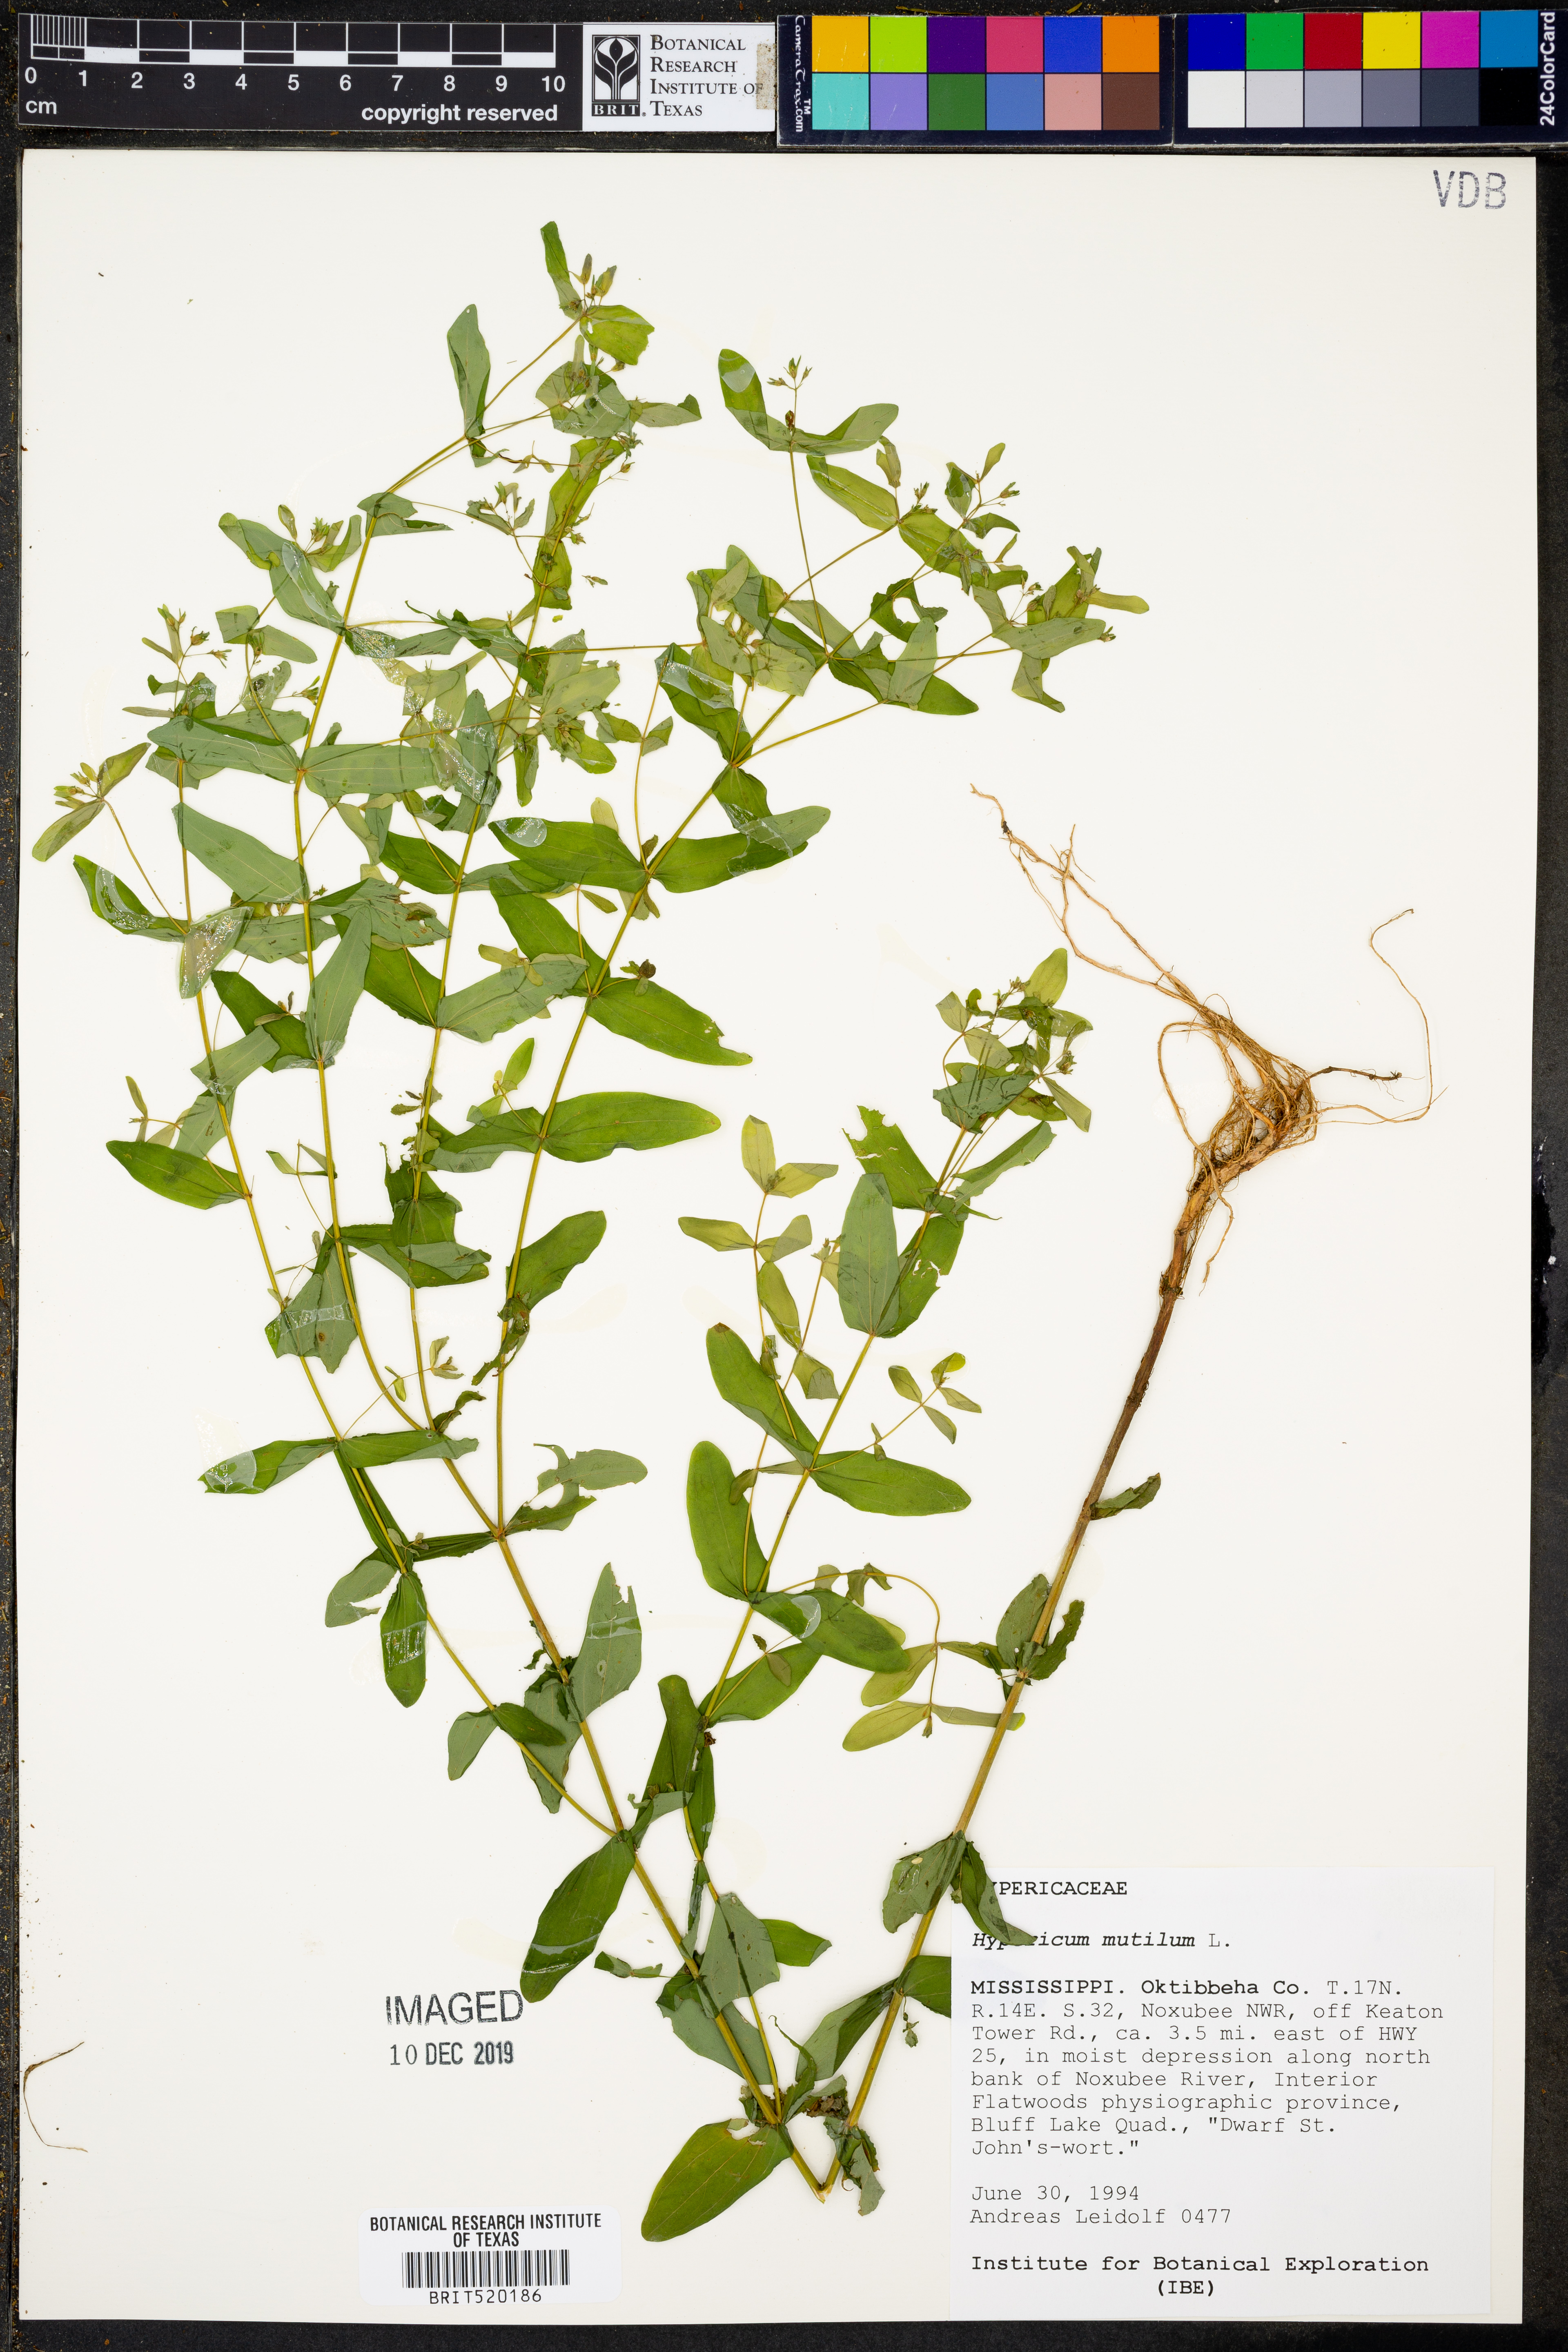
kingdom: Plantae
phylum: Tracheophyta
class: Magnoliopsida
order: Malpighiales
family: Hypericaceae
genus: Hypericum
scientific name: Hypericum mutilum
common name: Dwarf st. john's-wort
